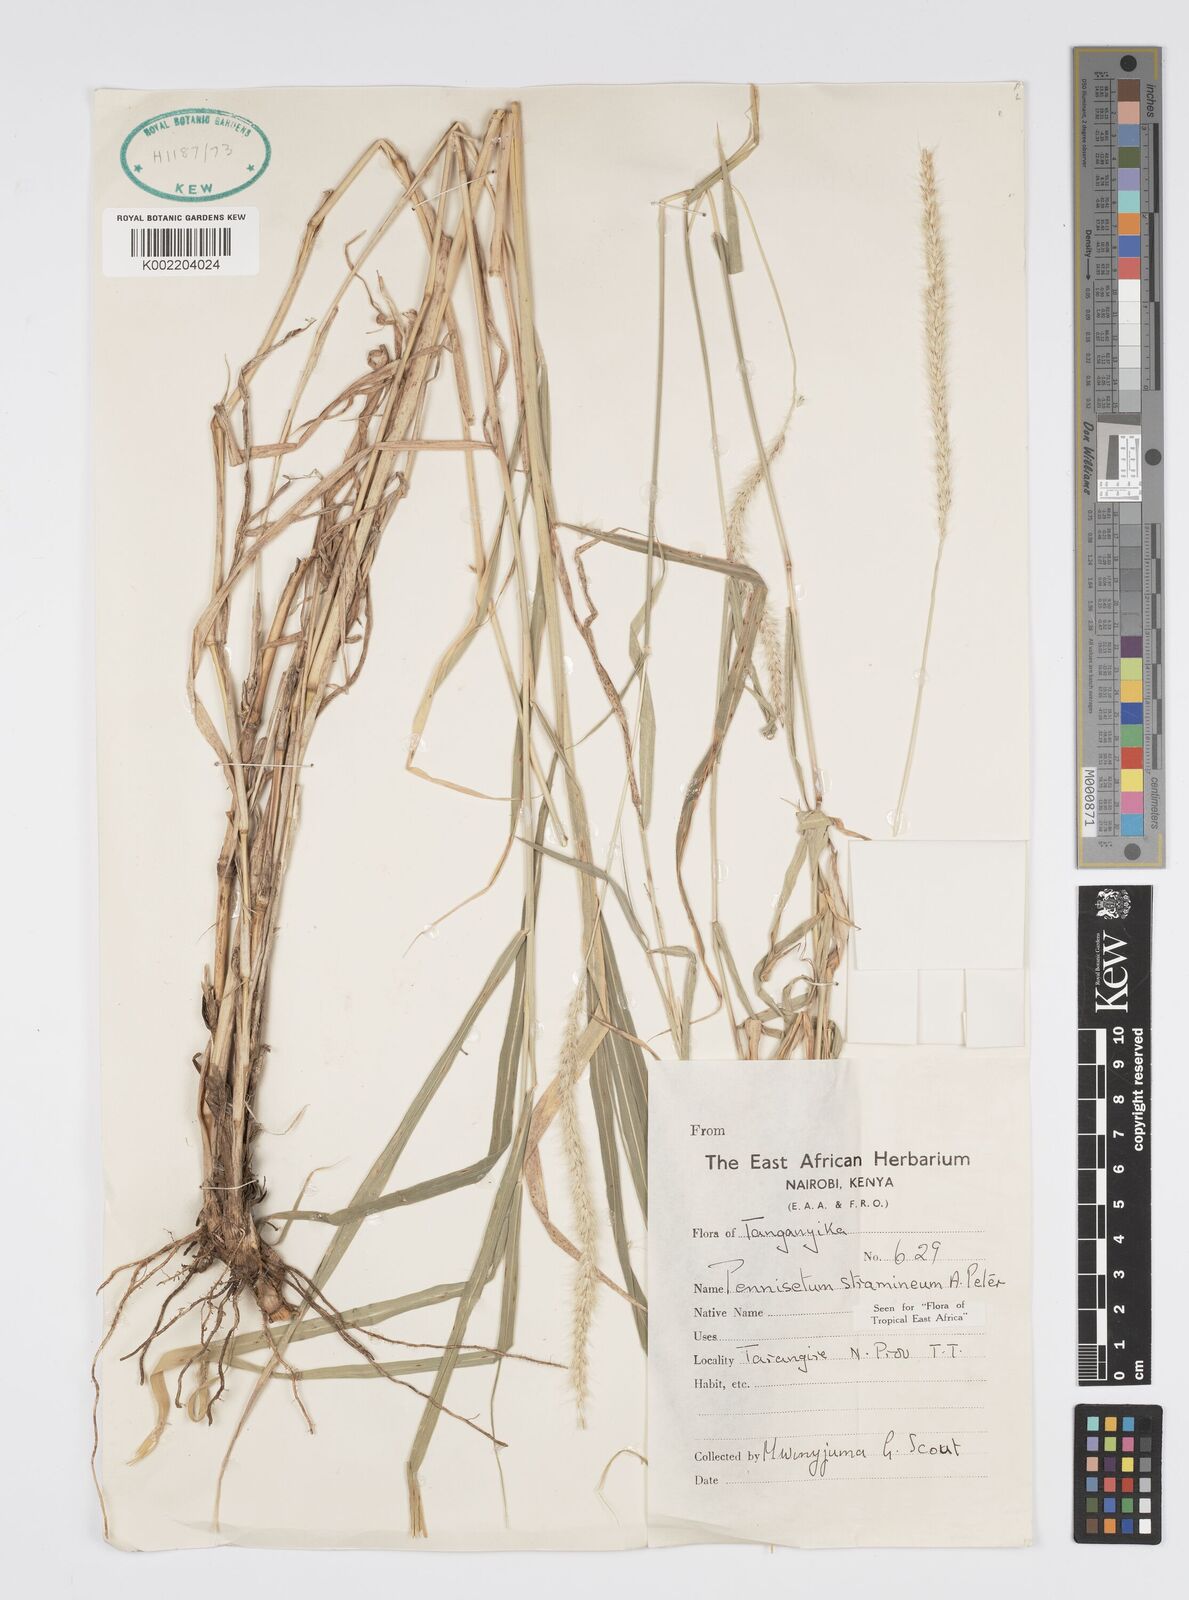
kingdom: Plantae
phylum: Tracheophyta
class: Liliopsida
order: Poales
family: Poaceae
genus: Cenchrus
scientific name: Cenchrus stramineus
